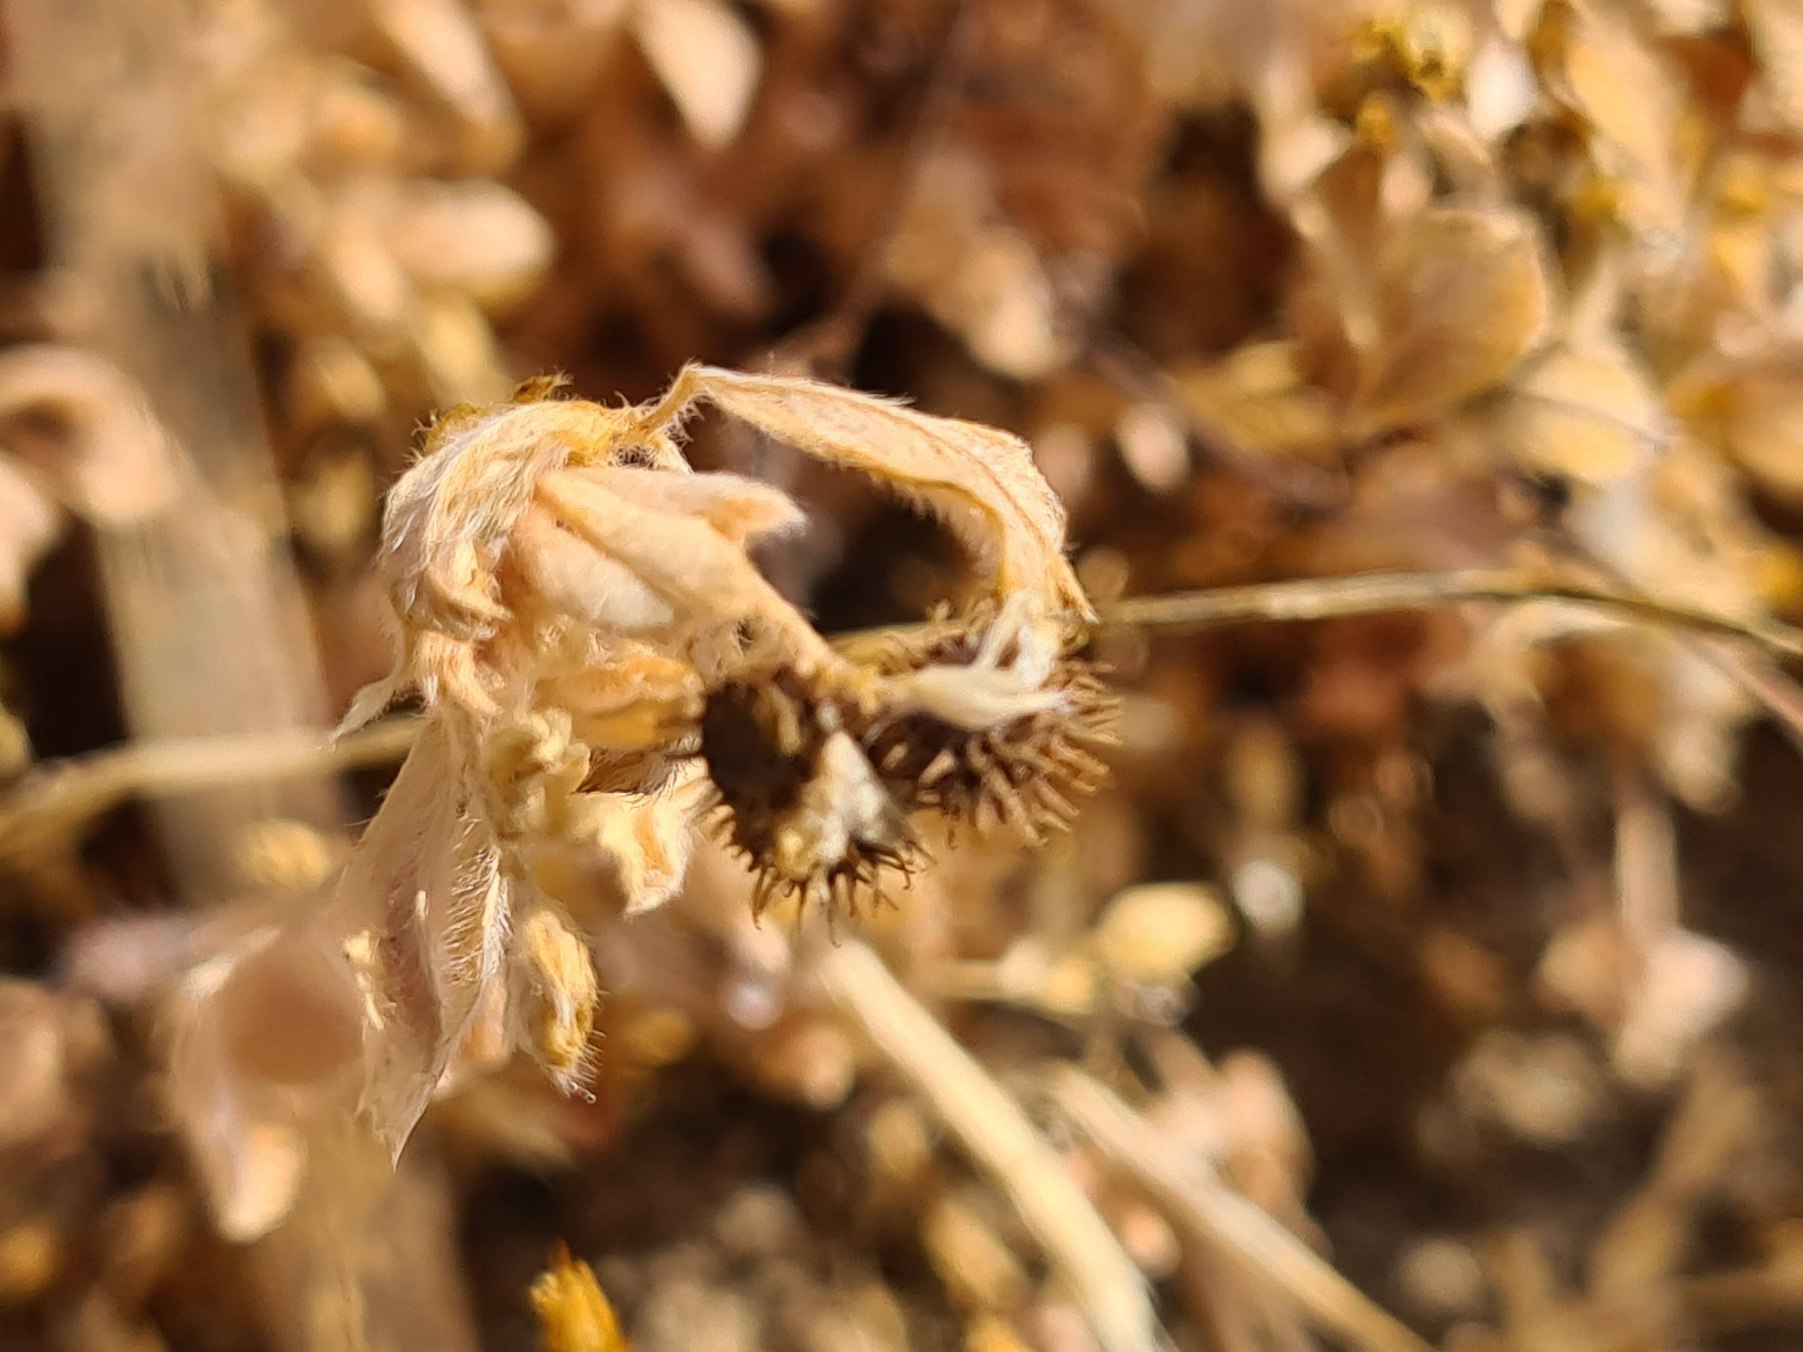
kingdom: Plantae
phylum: Tracheophyta
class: Magnoliopsida
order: Fabales
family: Fabaceae
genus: Medicago
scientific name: Medicago minima
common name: Liden sneglebælg
